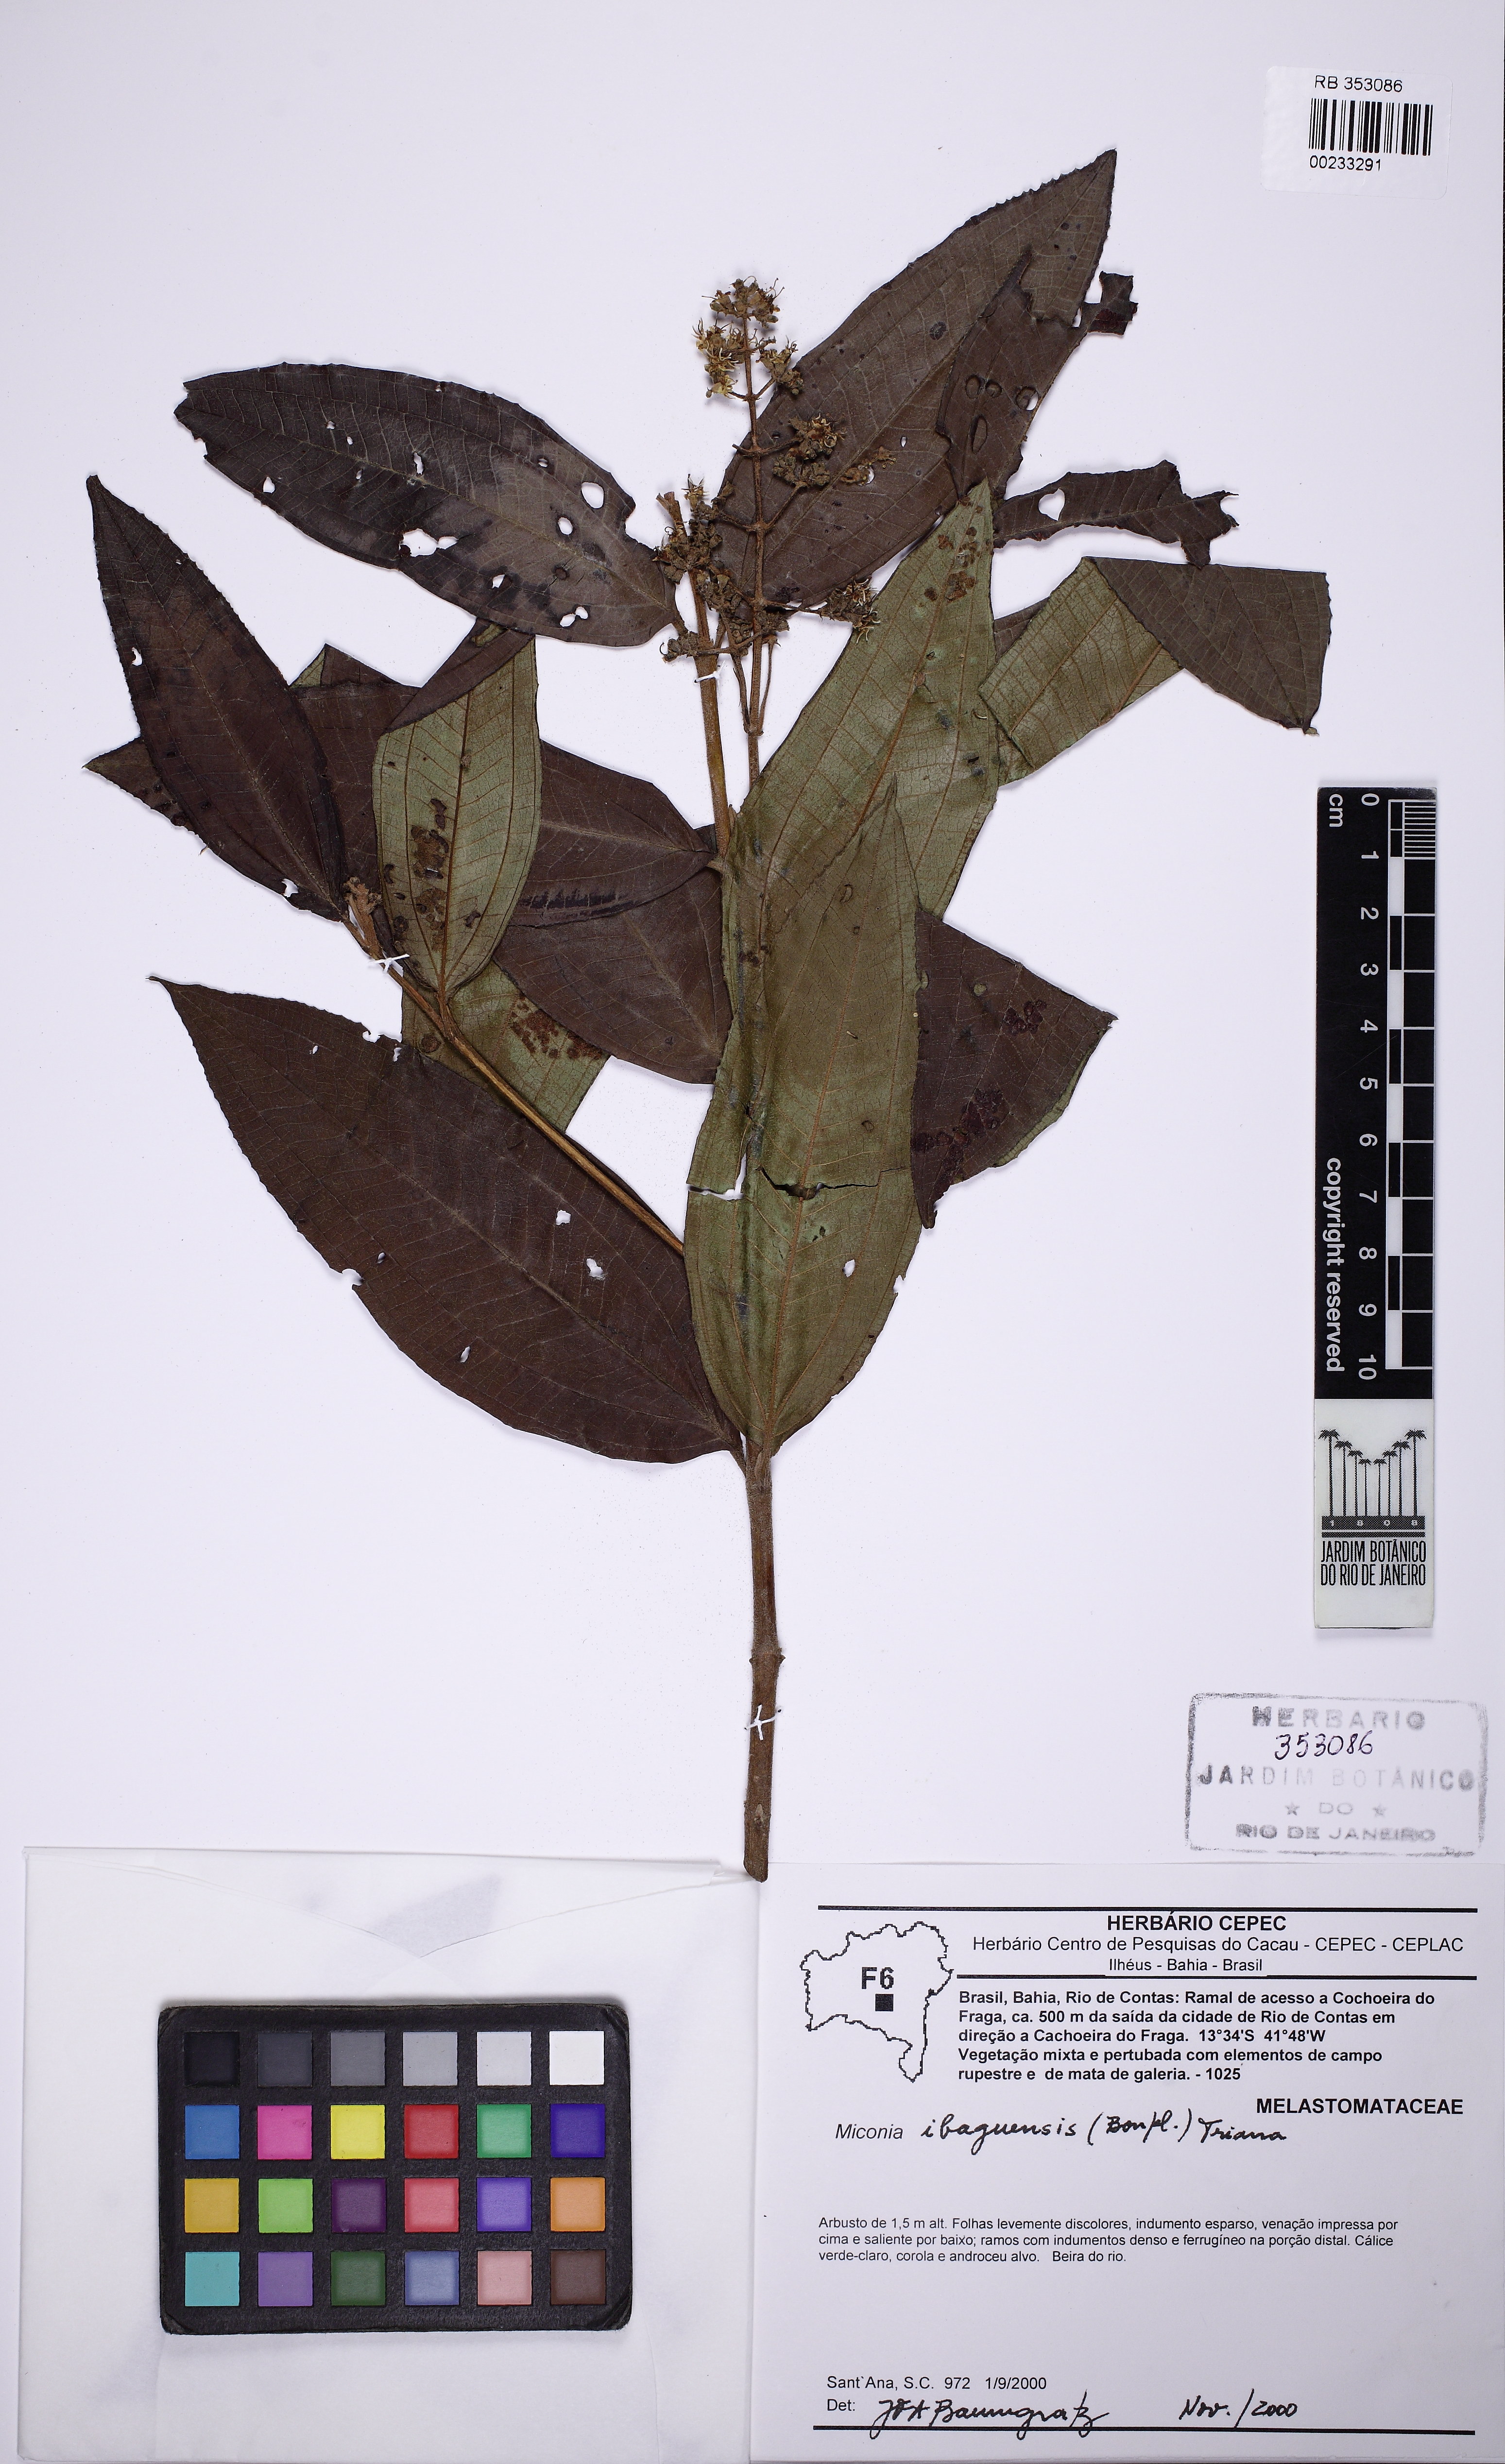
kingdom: Plantae
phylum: Tracheophyta
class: Magnoliopsida
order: Myrtales
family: Melastomataceae
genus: Miconia
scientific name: Miconia ibaguensis
